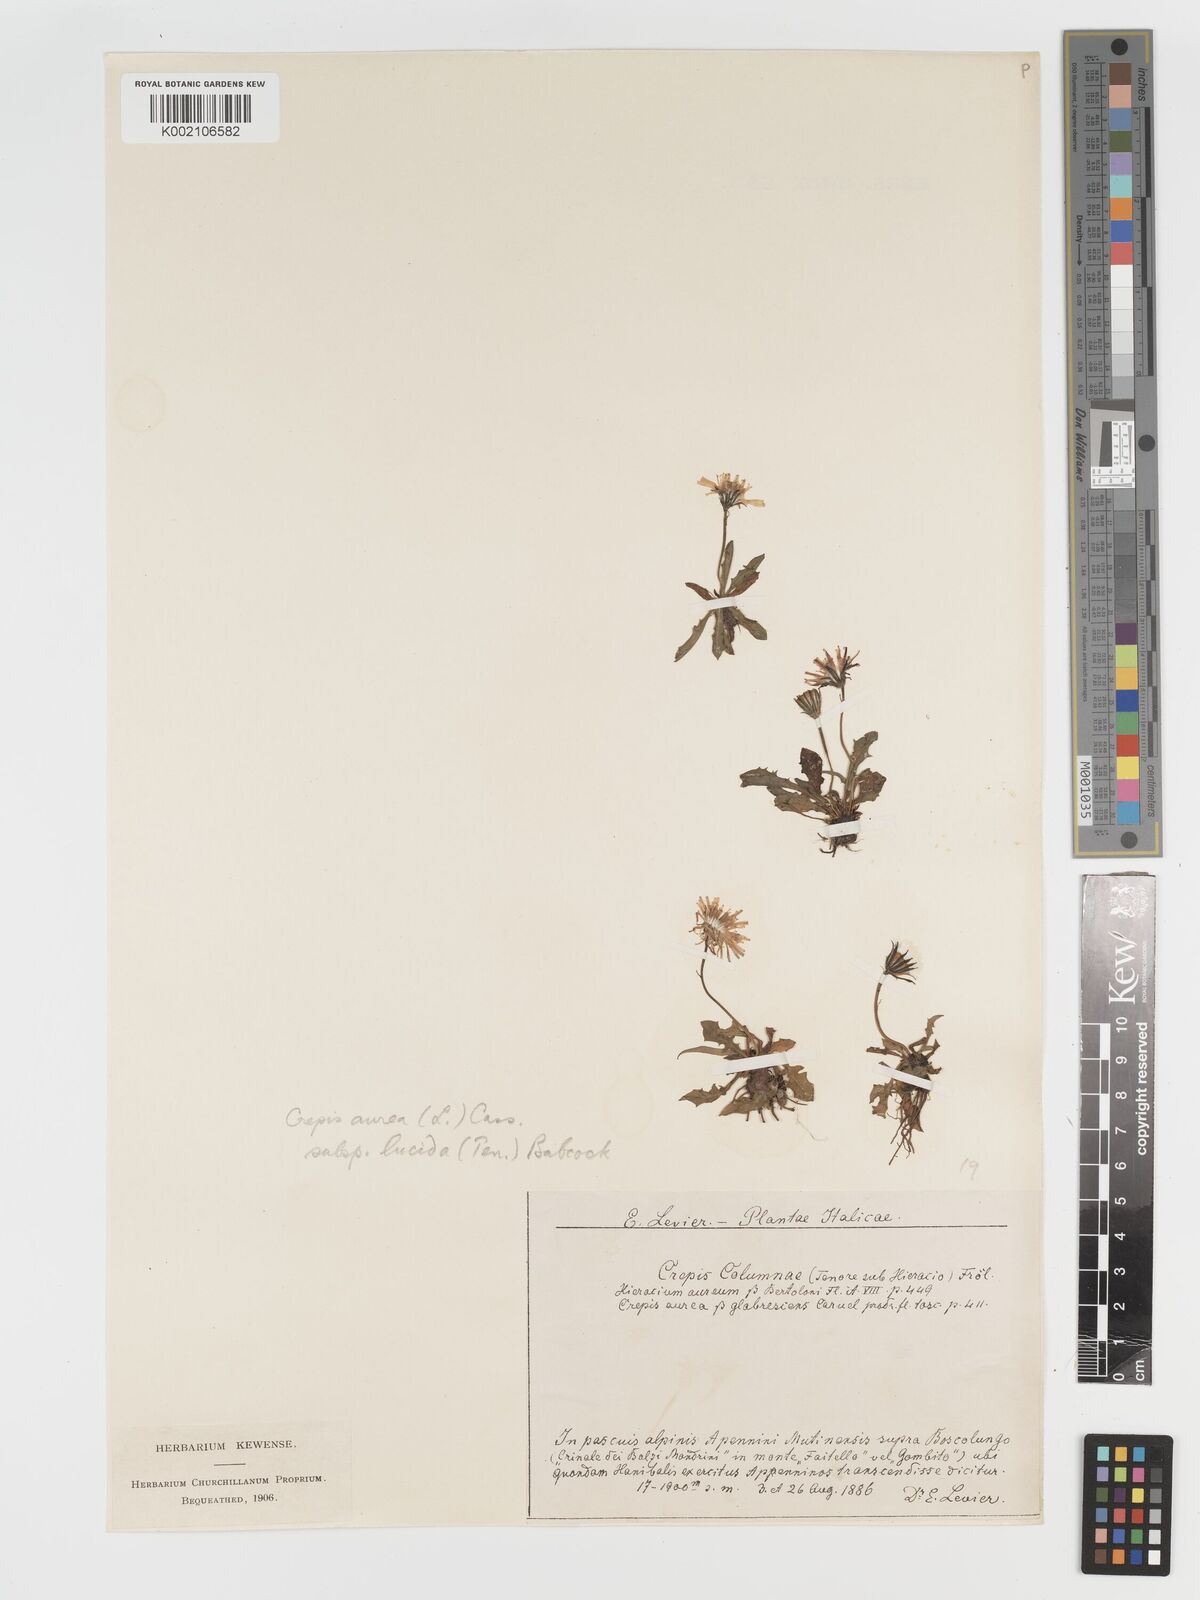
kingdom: Plantae
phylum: Tracheophyta
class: Magnoliopsida
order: Asterales
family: Asteraceae
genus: Crepis
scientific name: Crepis aurea
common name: Golden hawk's-beard
